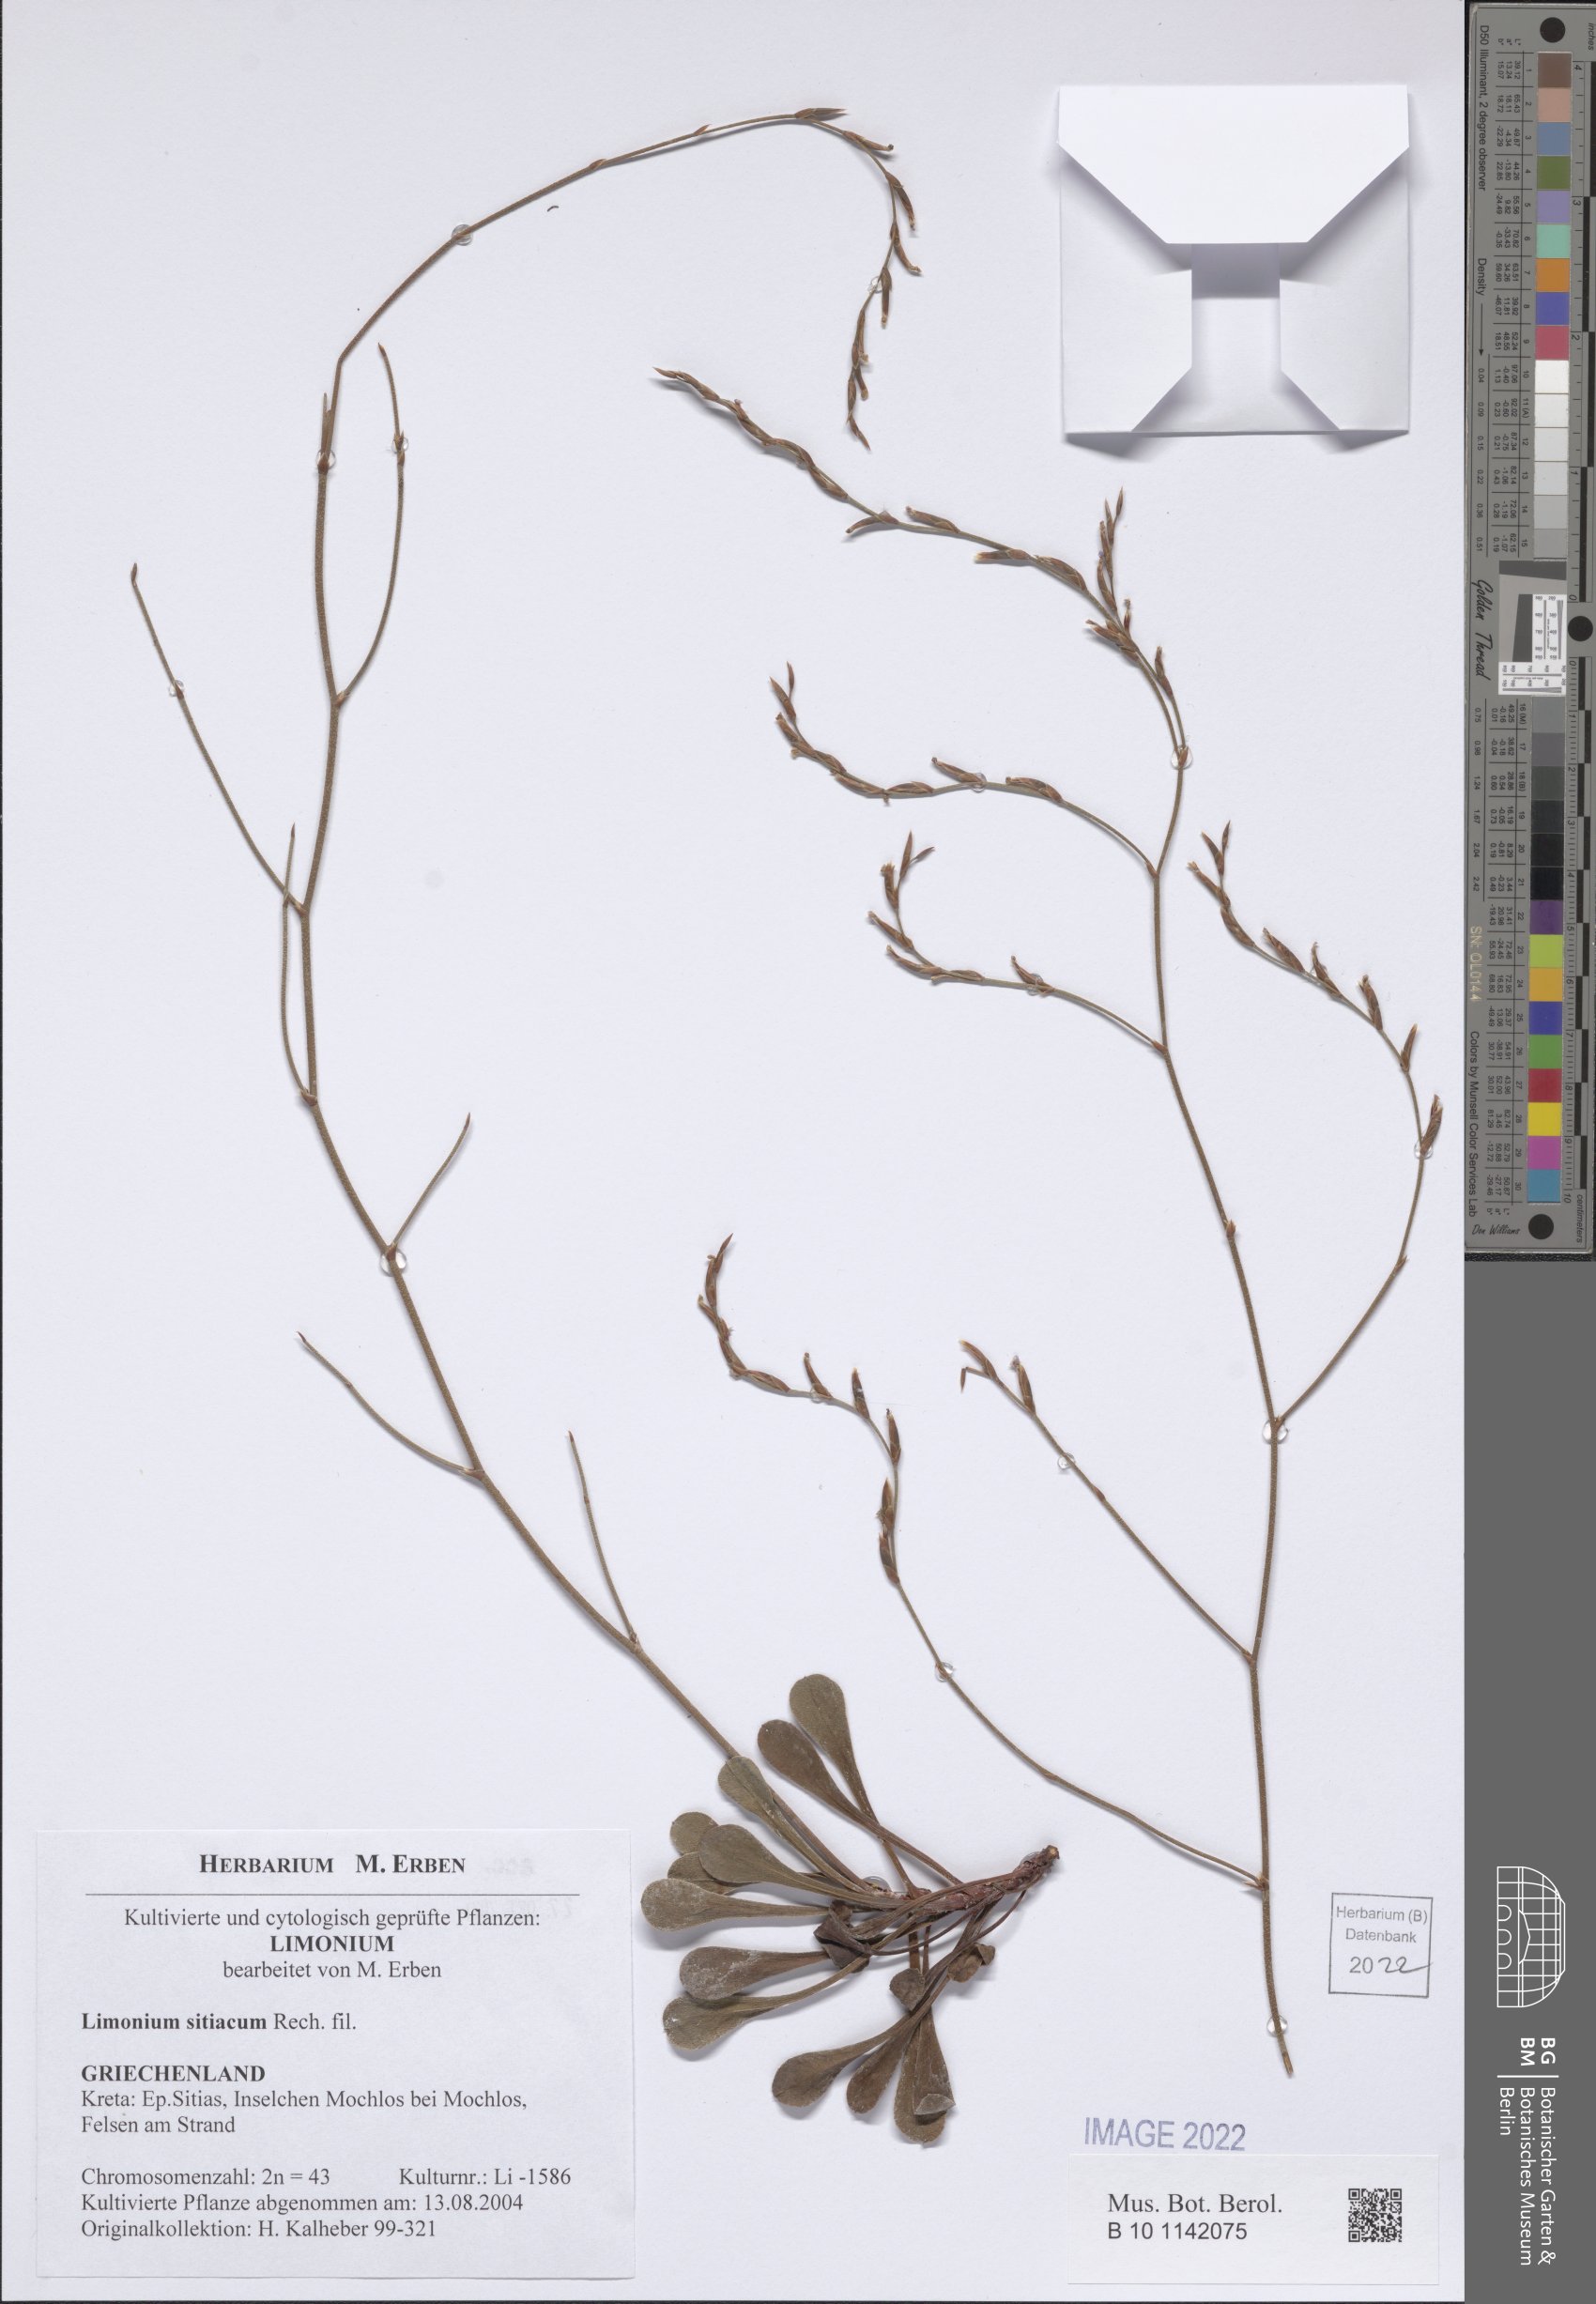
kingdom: Plantae
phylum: Tracheophyta
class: Magnoliopsida
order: Caryophyllales
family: Plumbaginaceae
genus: Limonium
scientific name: Limonium sitiacum
